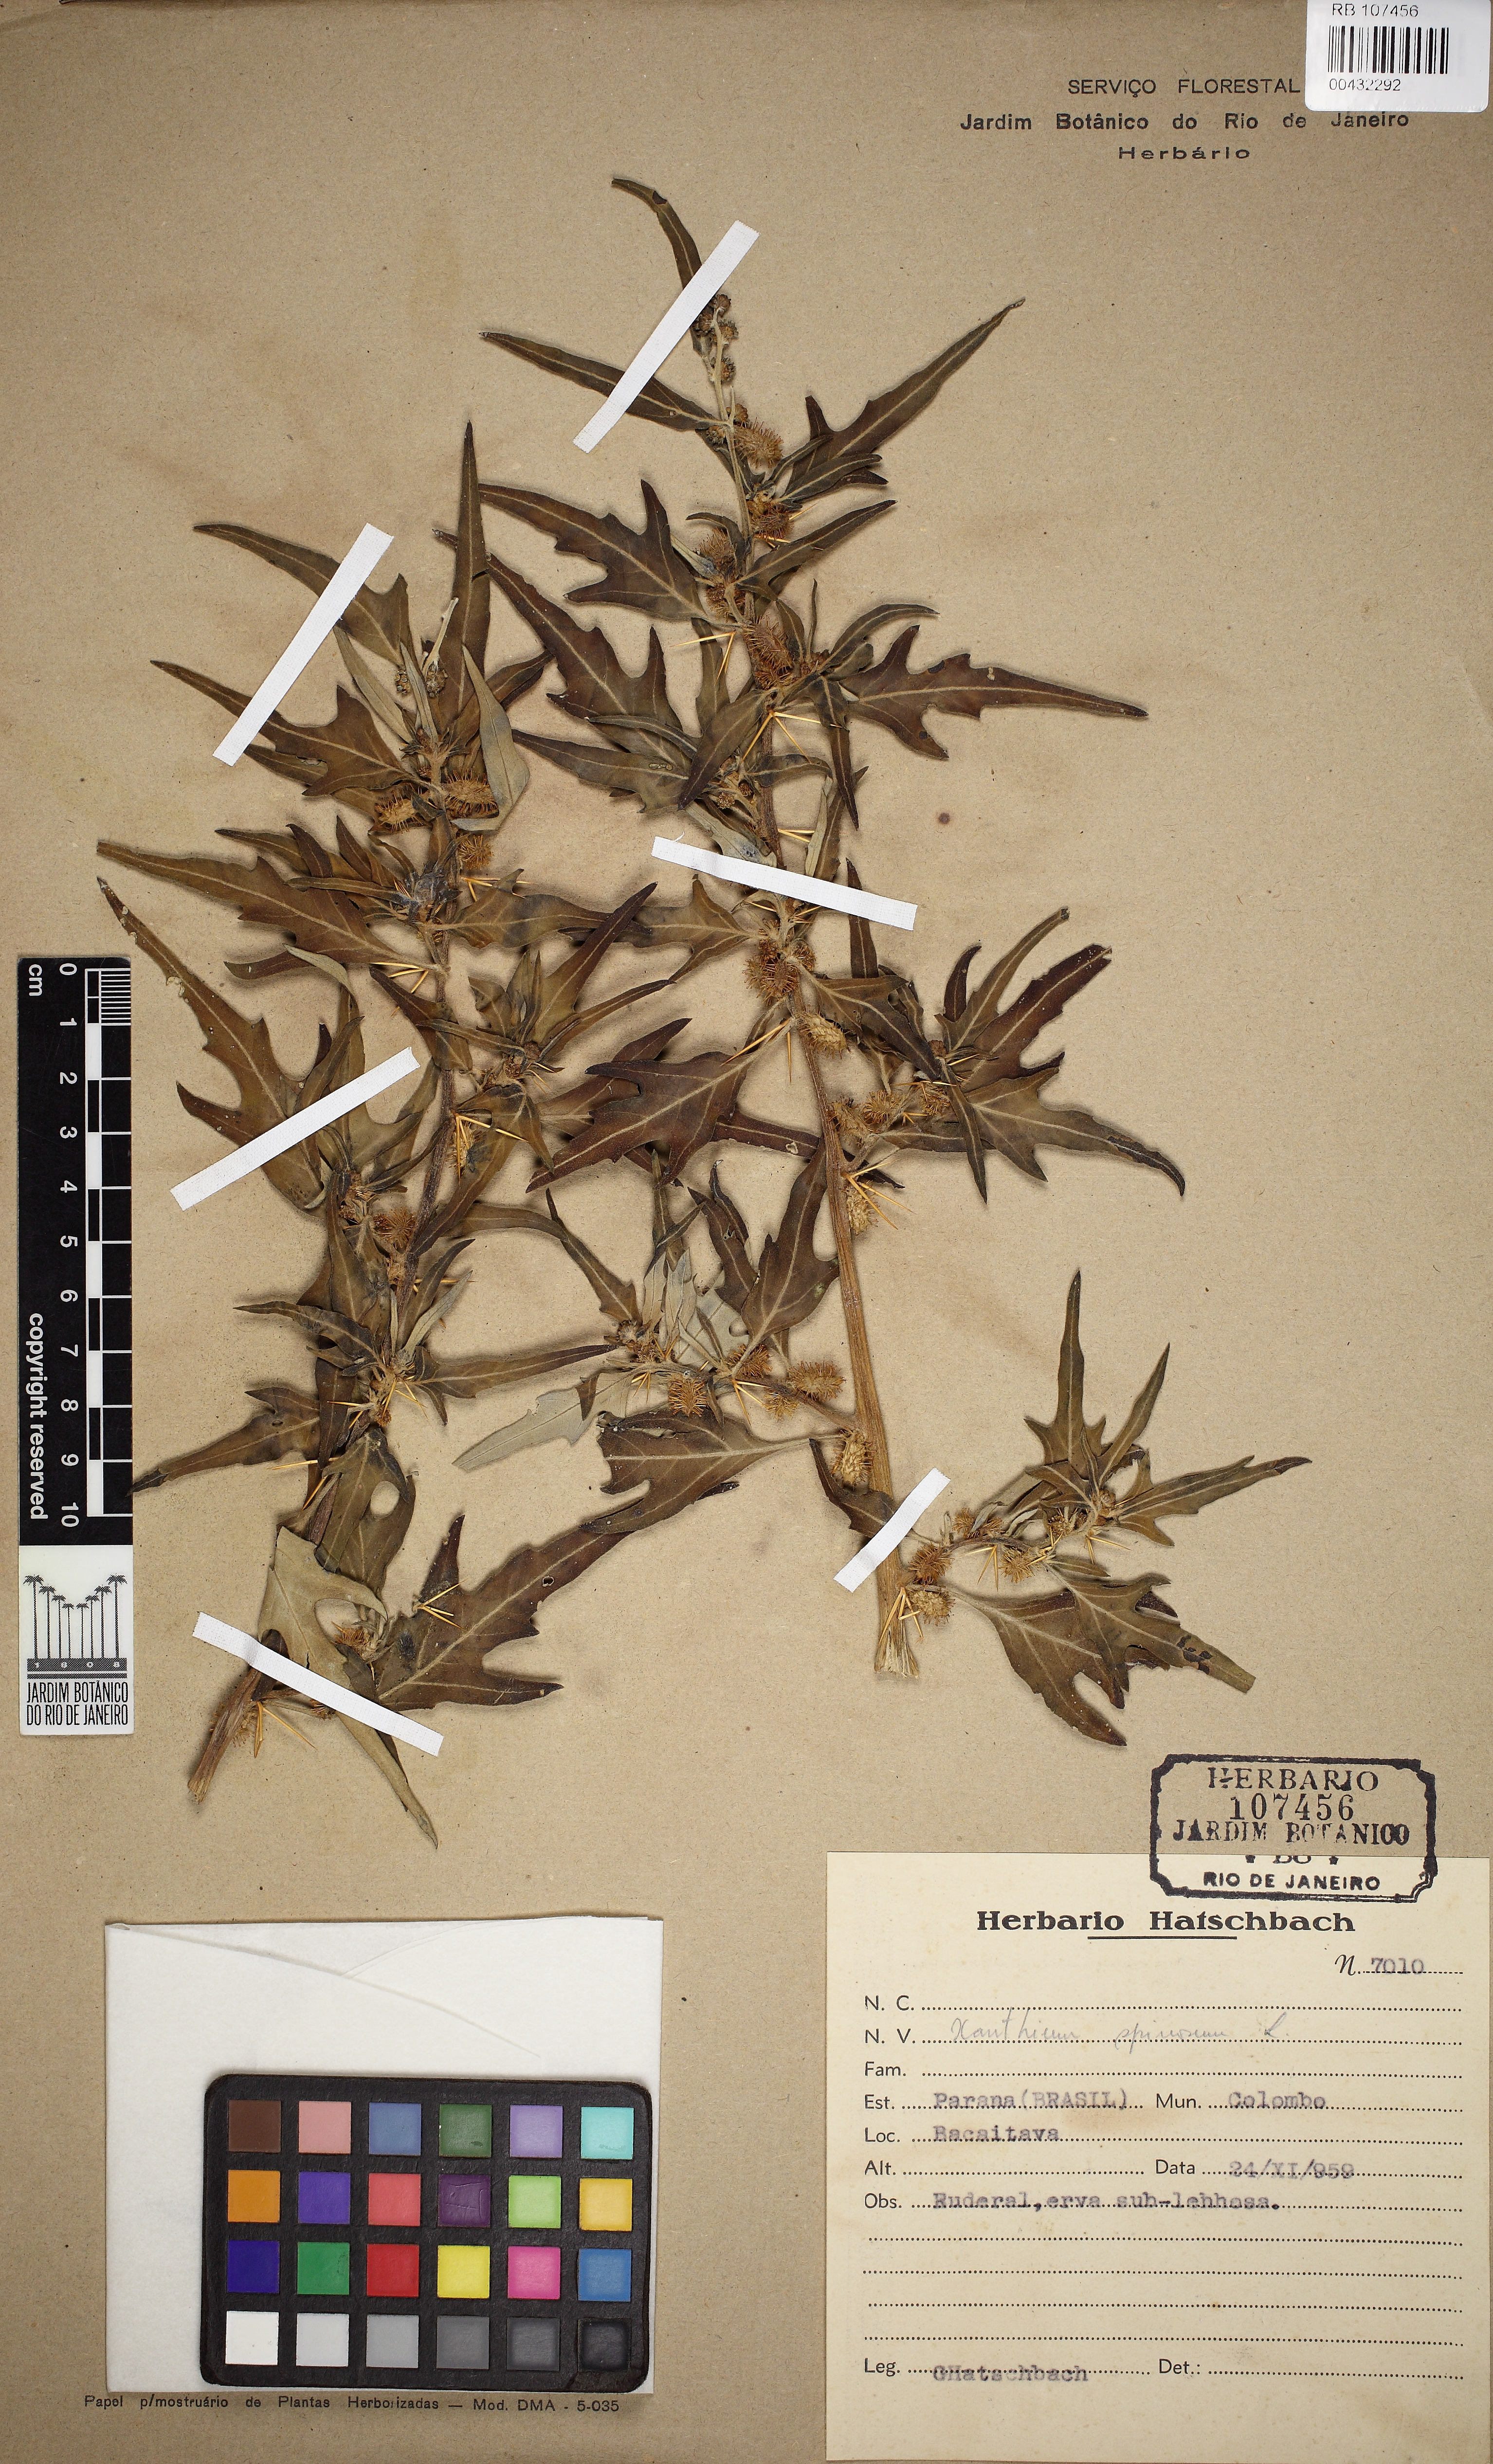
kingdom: Plantae
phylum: Tracheophyta
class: Magnoliopsida
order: Asterales
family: Asteraceae
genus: Xanthium
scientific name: Xanthium spinosum
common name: Spiny cocklebur
